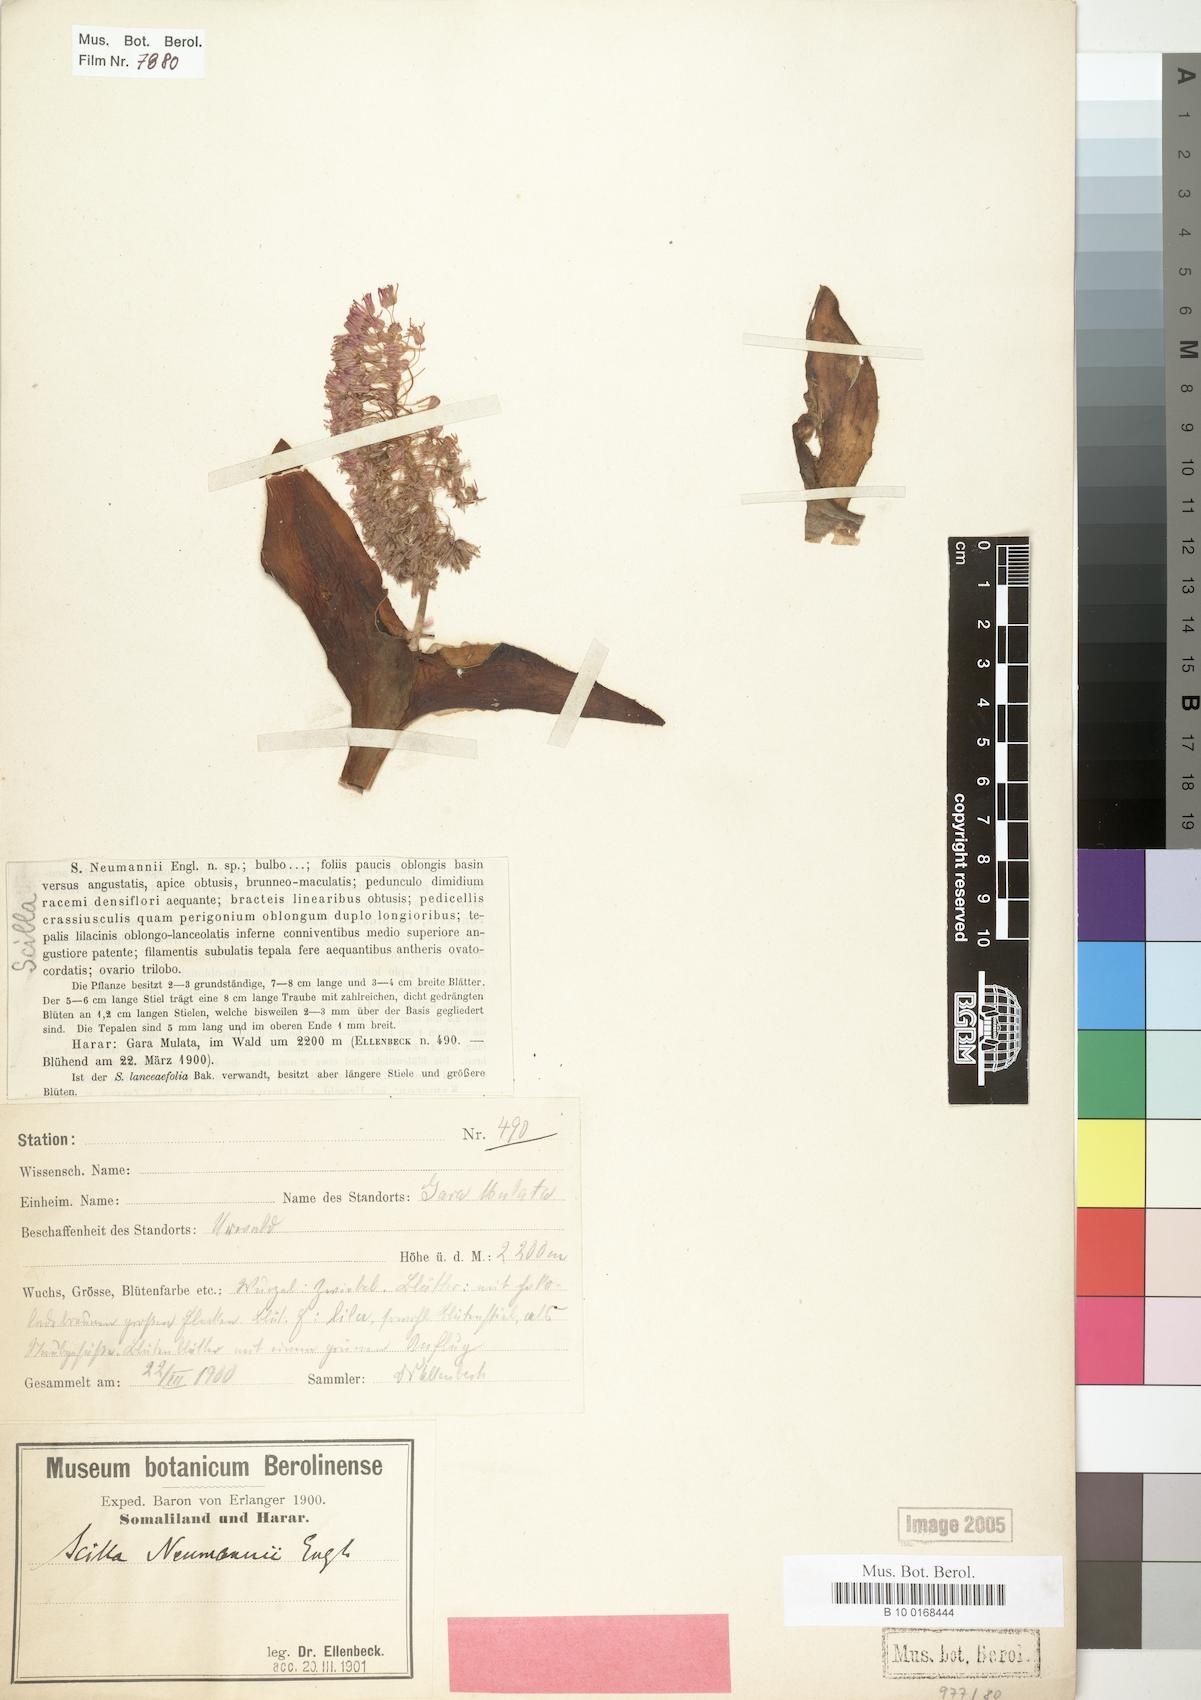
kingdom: Plantae
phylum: Tracheophyta
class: Liliopsida
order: Asparagales
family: Asparagaceae
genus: Ledebouria
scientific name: Ledebouria revoluta
